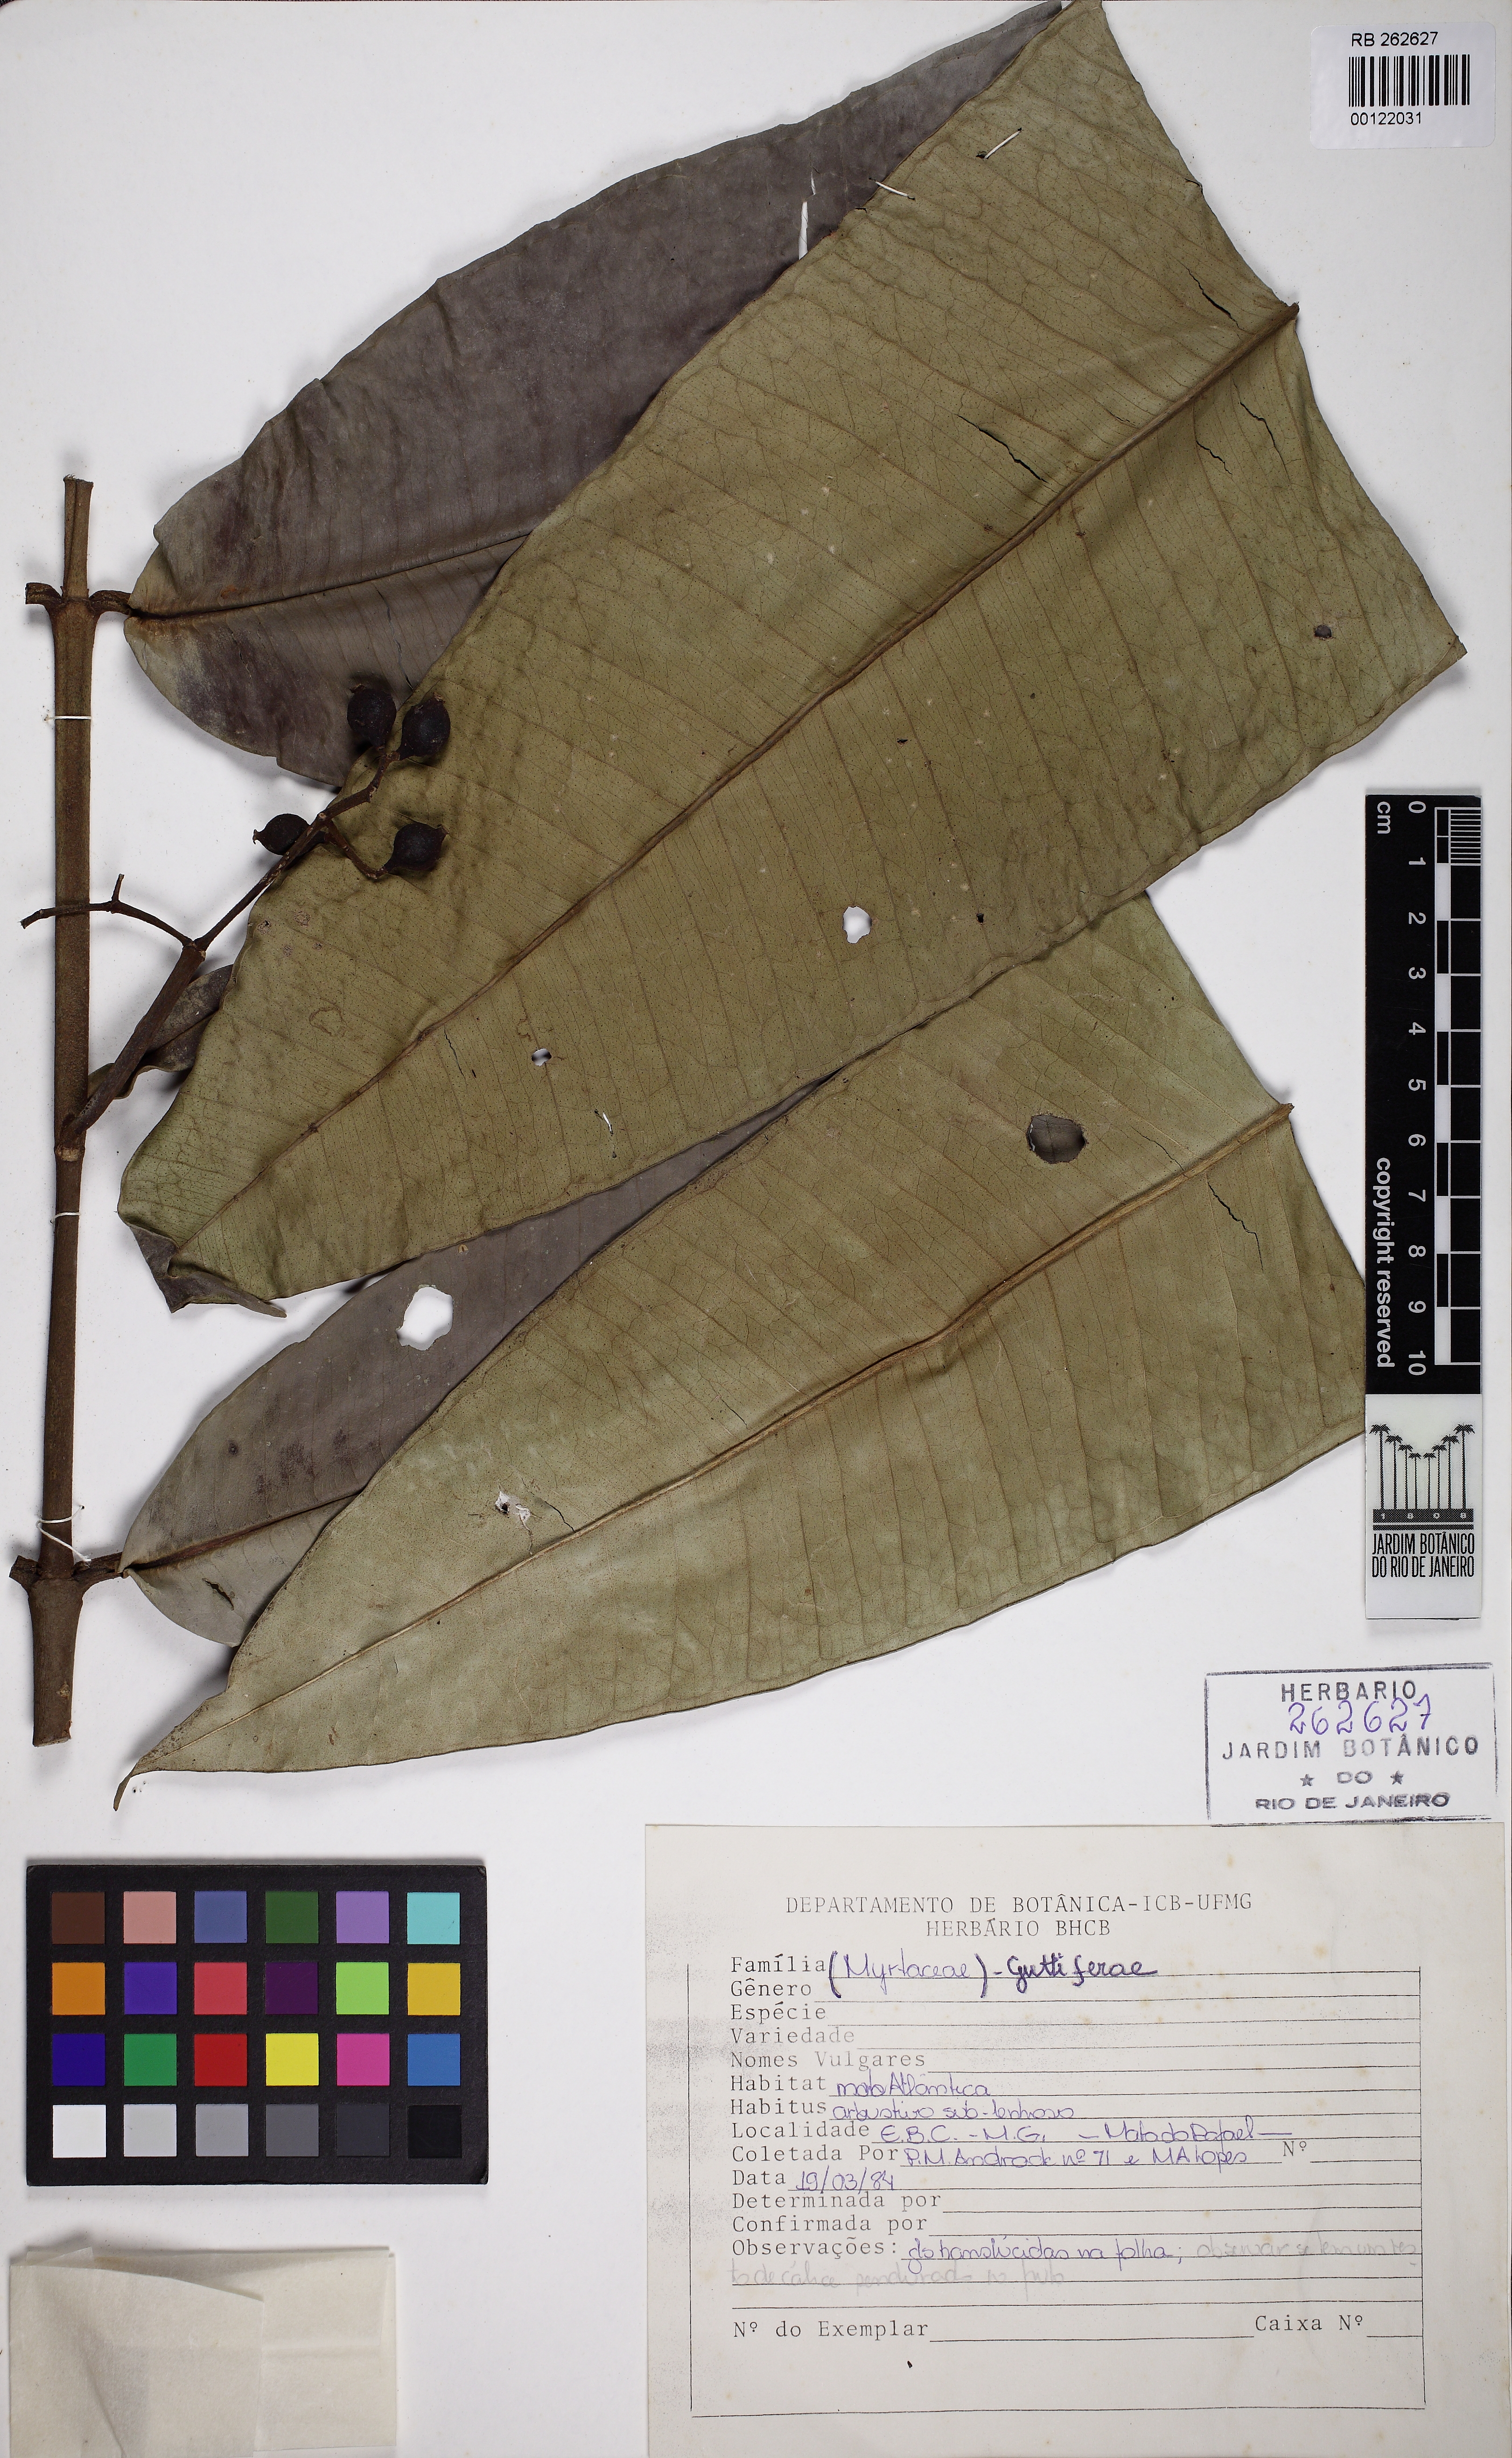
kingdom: Plantae
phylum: Tracheophyta
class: Magnoliopsida
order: Myrtales
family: Myrtaceae
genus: Myrcia
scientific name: Myrcia teuscheriana
